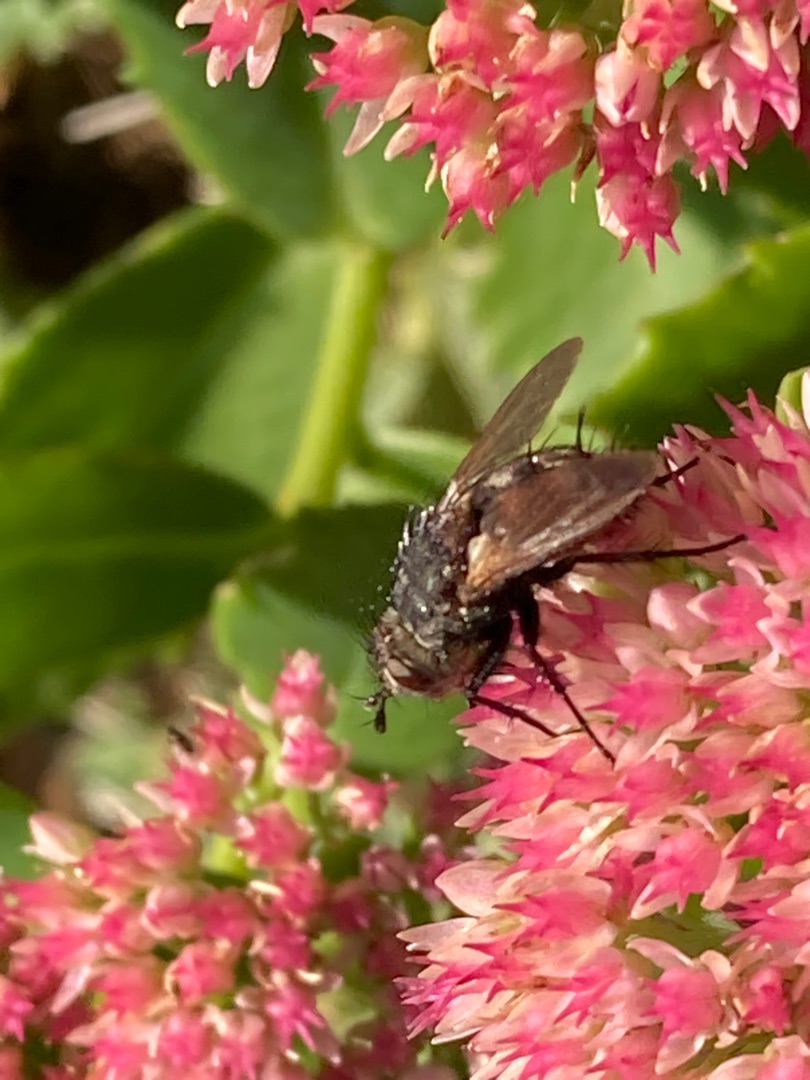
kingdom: Animalia
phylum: Arthropoda
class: Insecta
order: Diptera
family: Tachinidae
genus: Peleteria
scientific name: Peleteria rubescens
